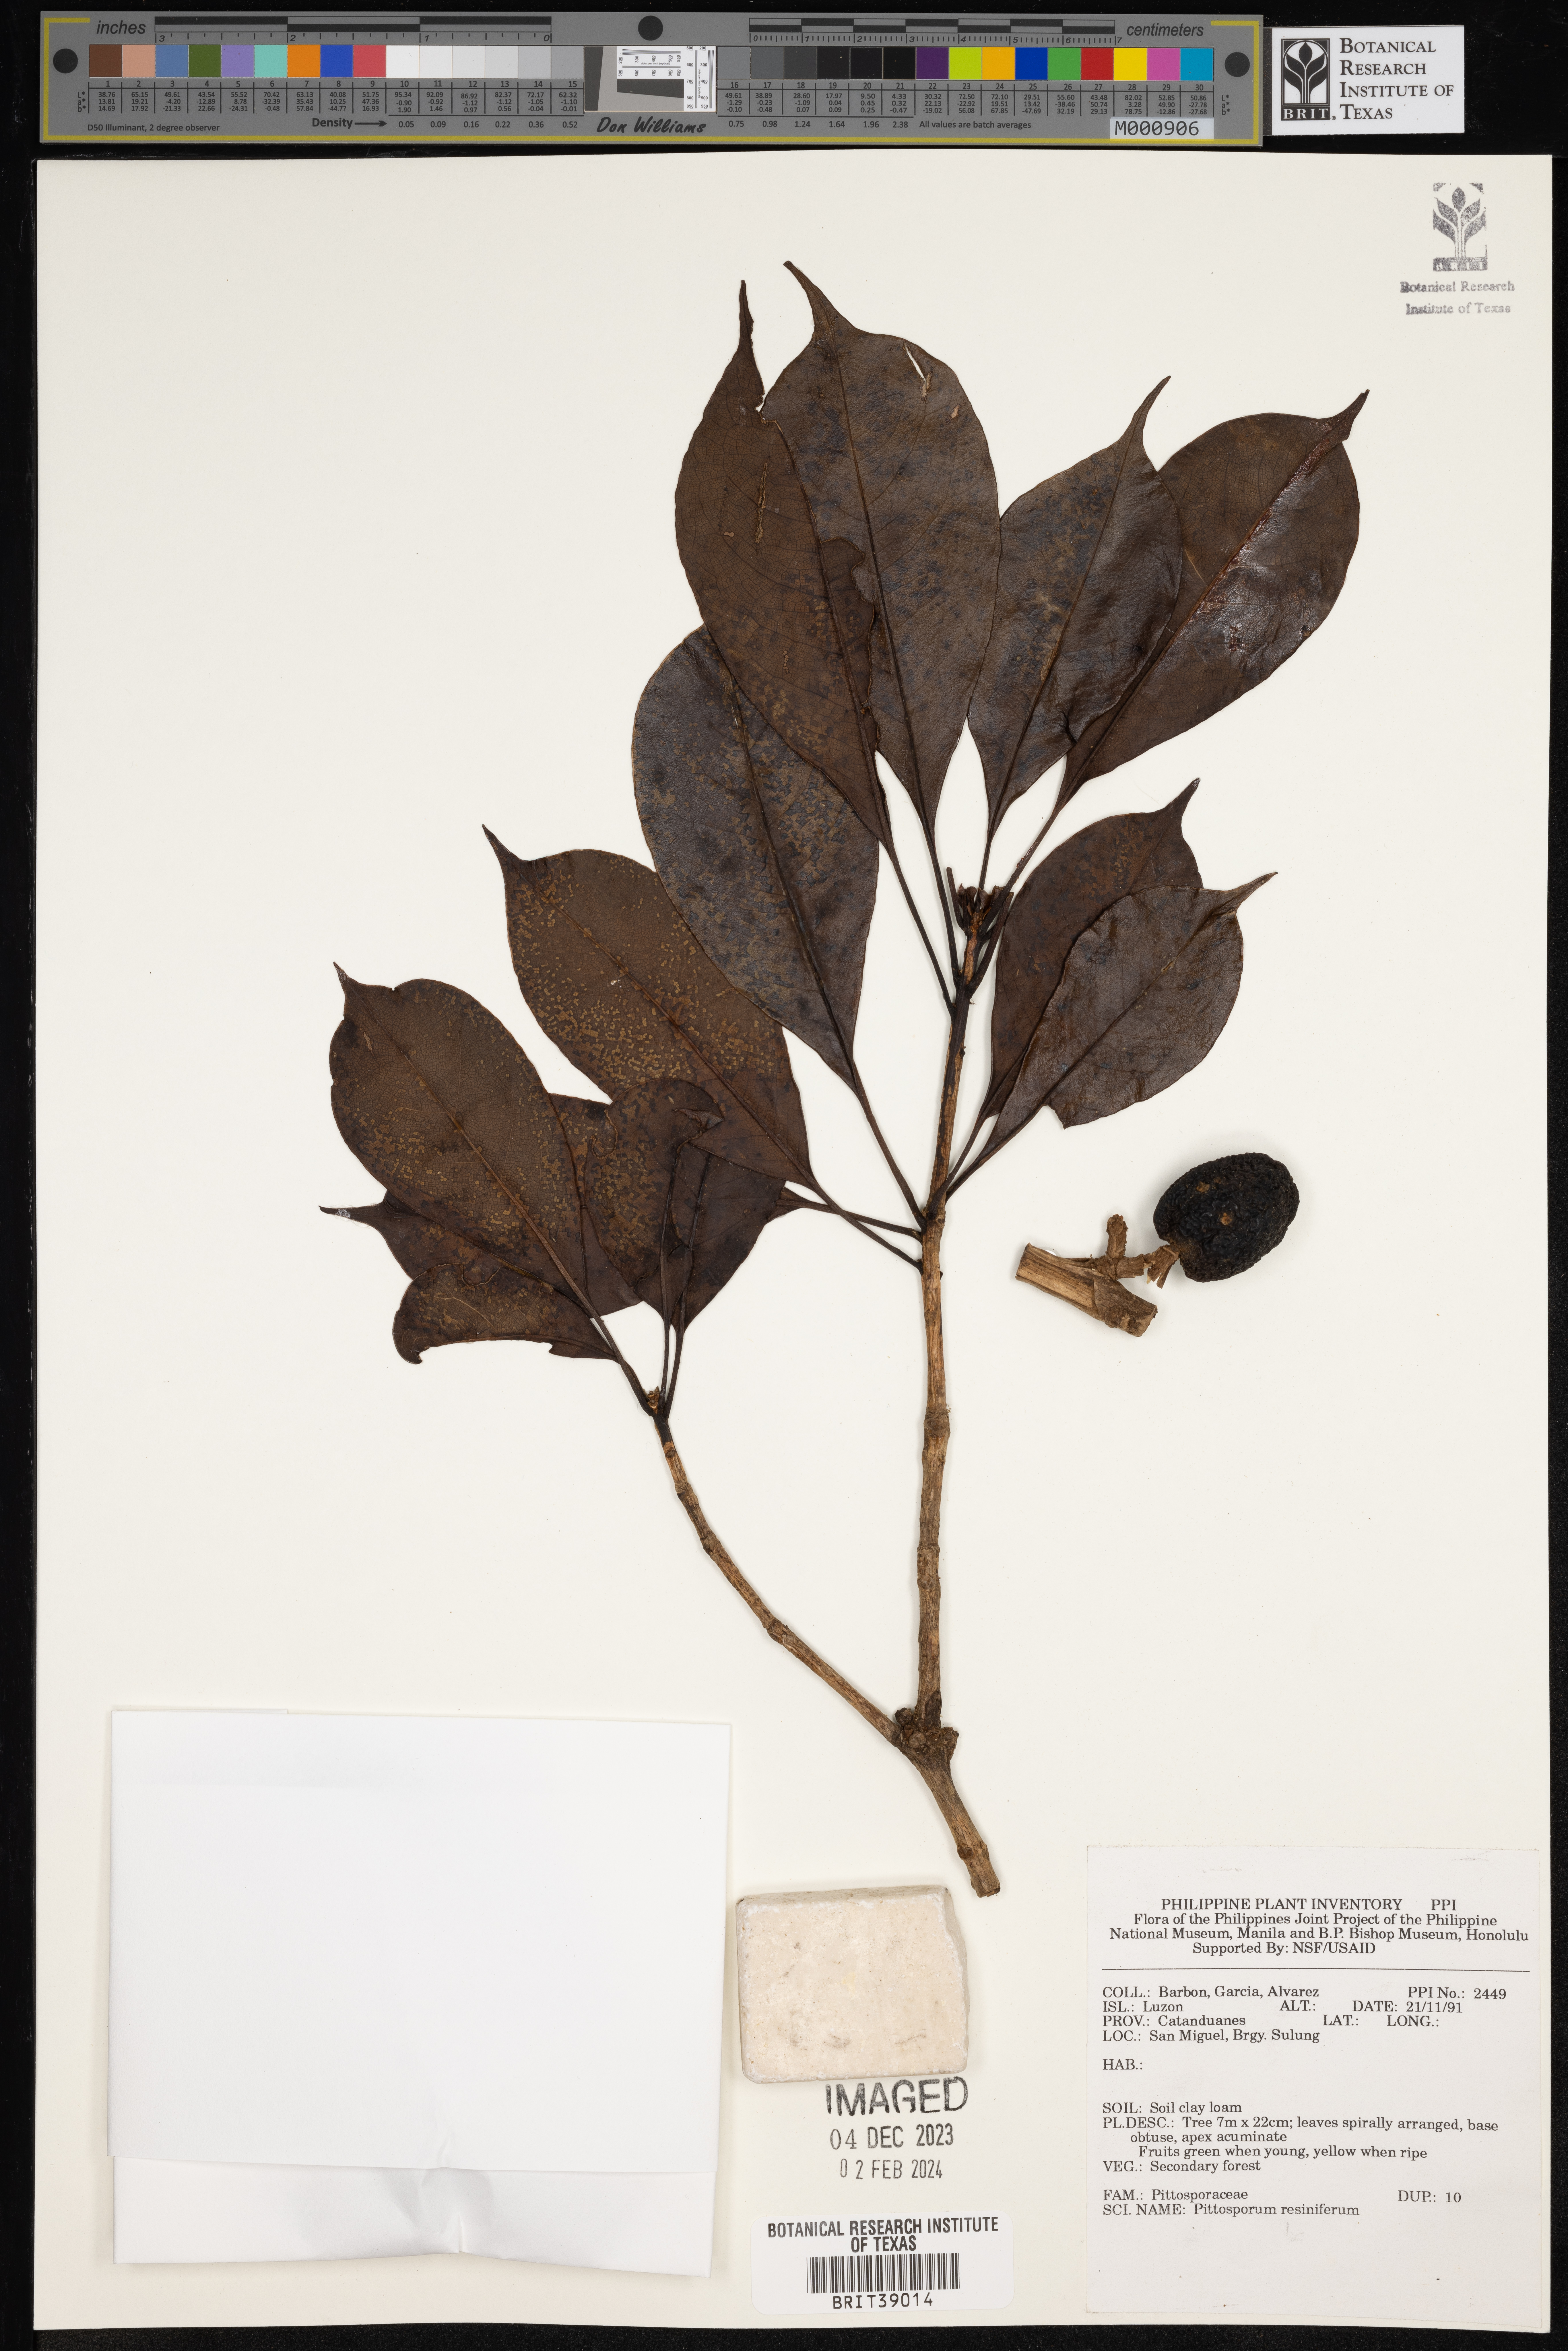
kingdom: Plantae
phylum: Tracheophyta
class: Magnoliopsida
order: Apiales
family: Pittosporaceae
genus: Pittosporum
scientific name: Pittosporum resiniferum
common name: Petroleum-nut
